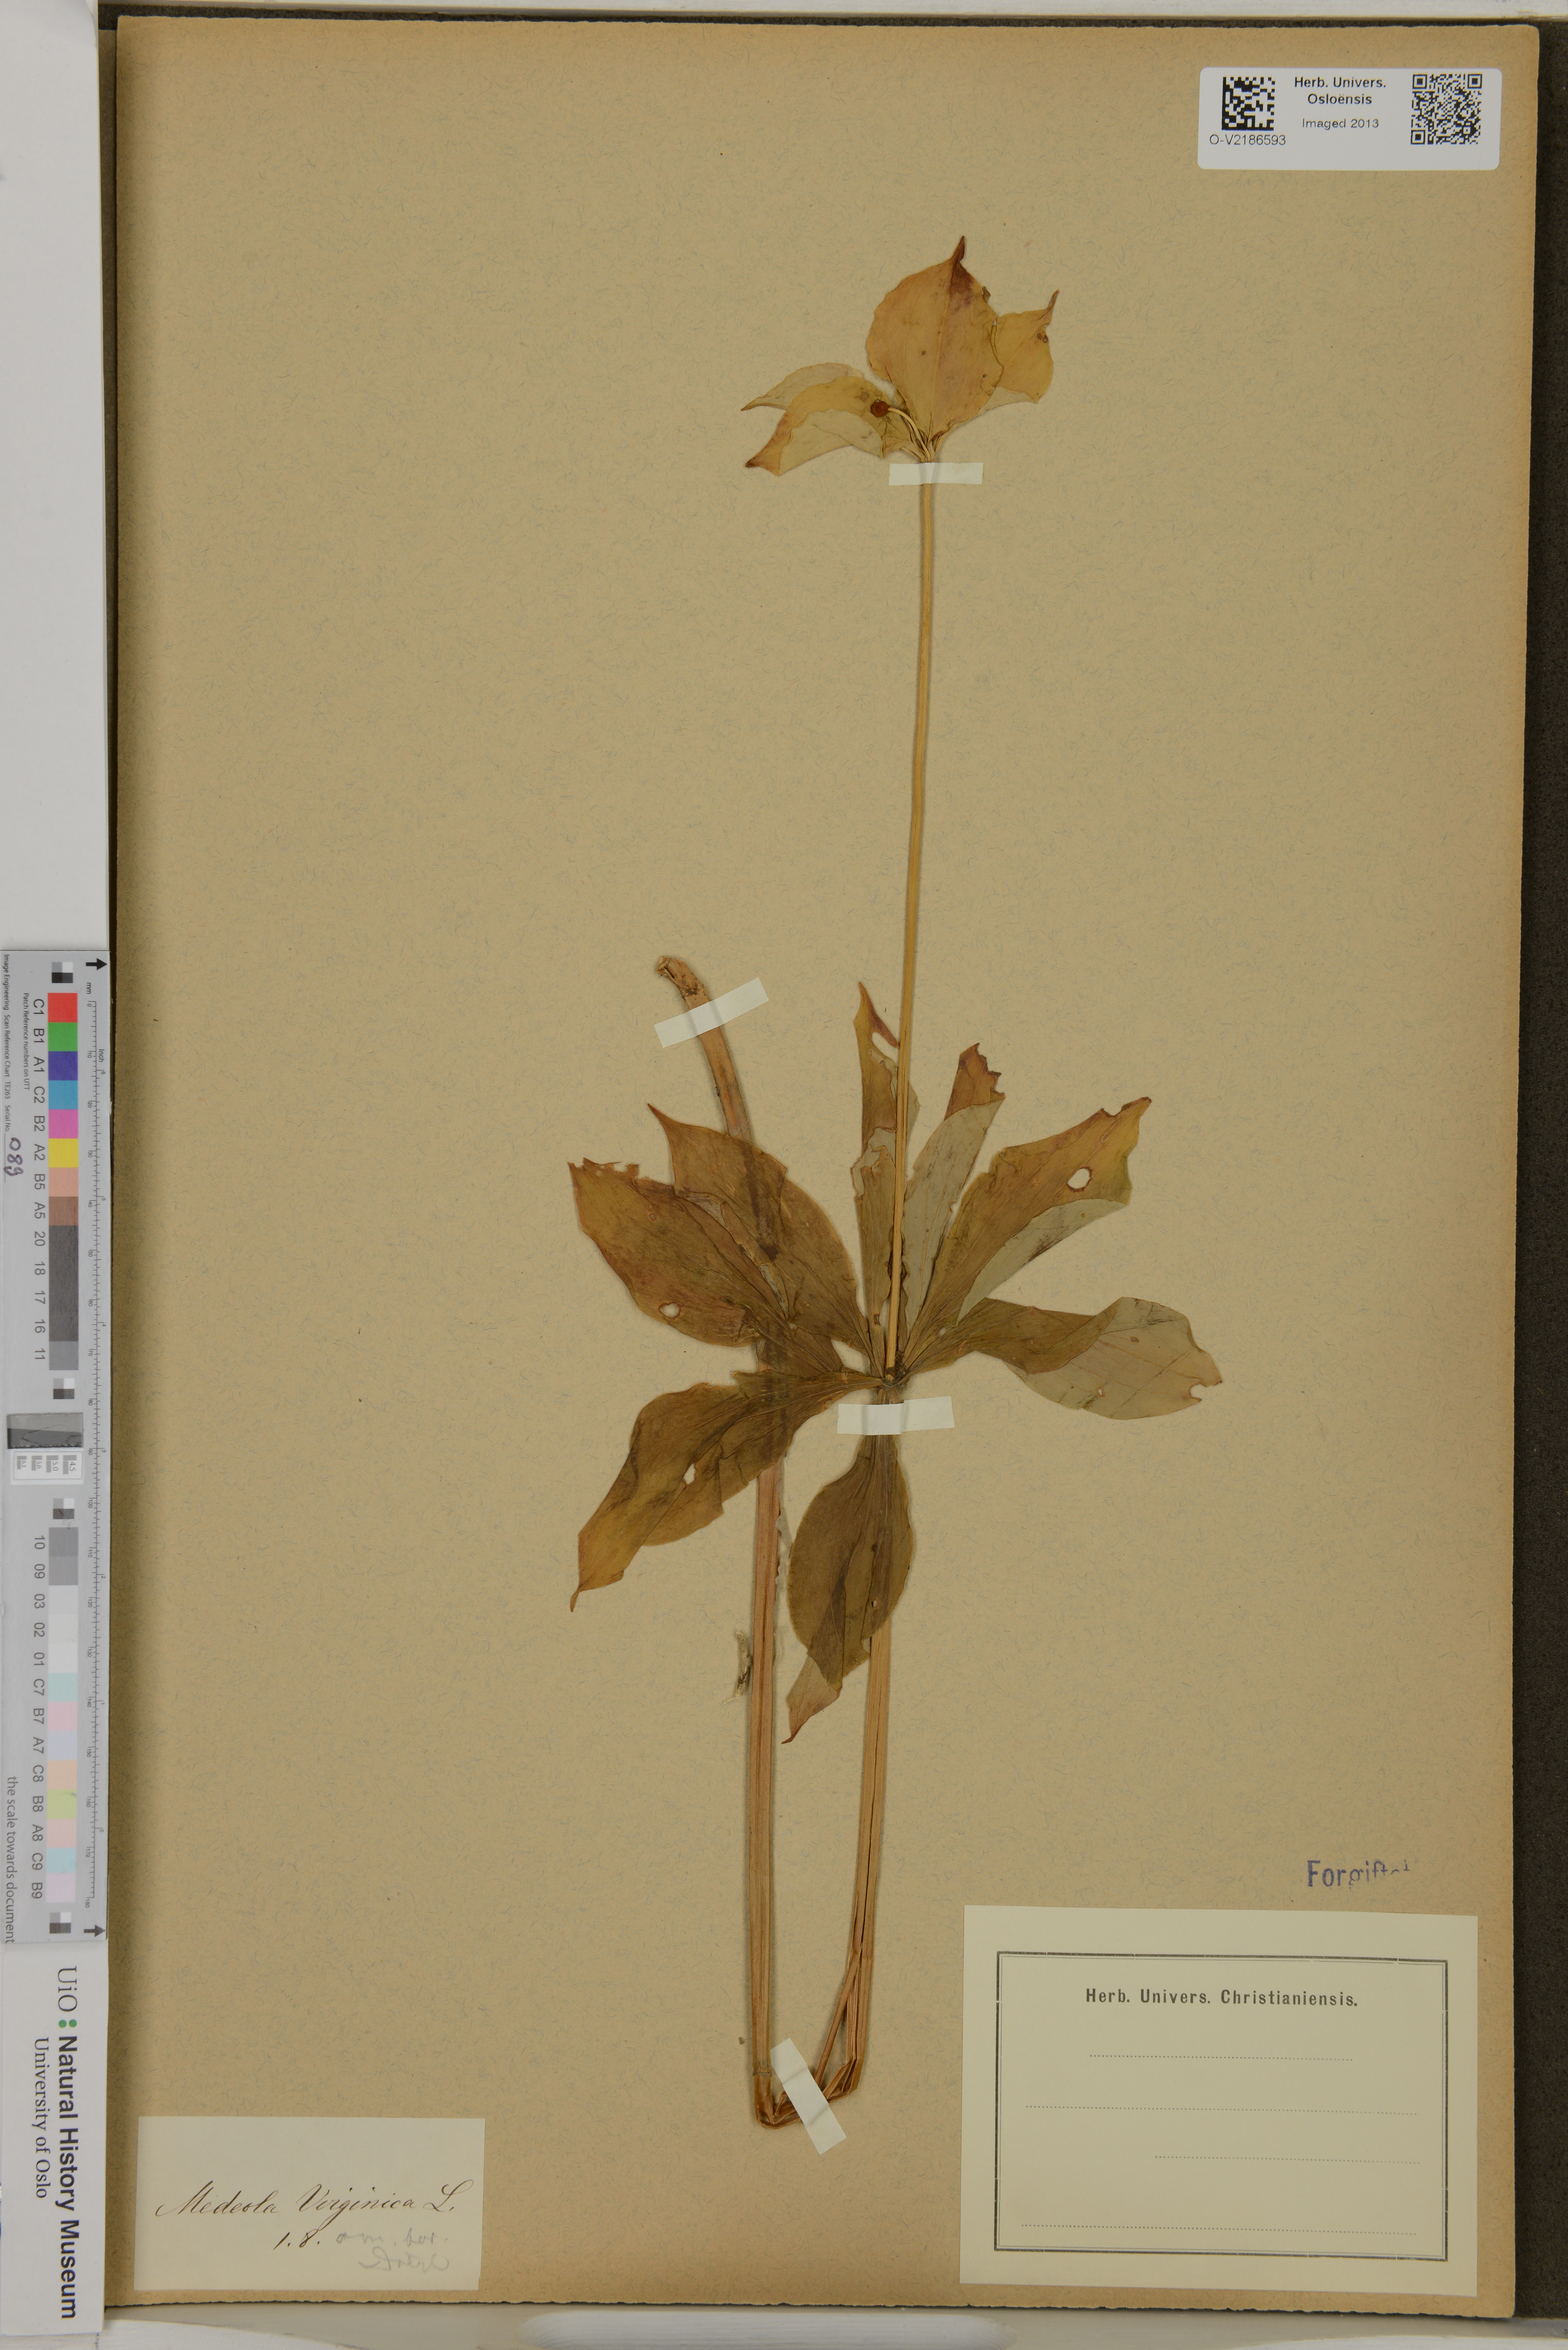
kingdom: Plantae
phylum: Tracheophyta
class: Liliopsida
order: Liliales
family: Liliaceae
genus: Medeola
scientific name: Medeola virginiana
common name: Indian cucumber-root
